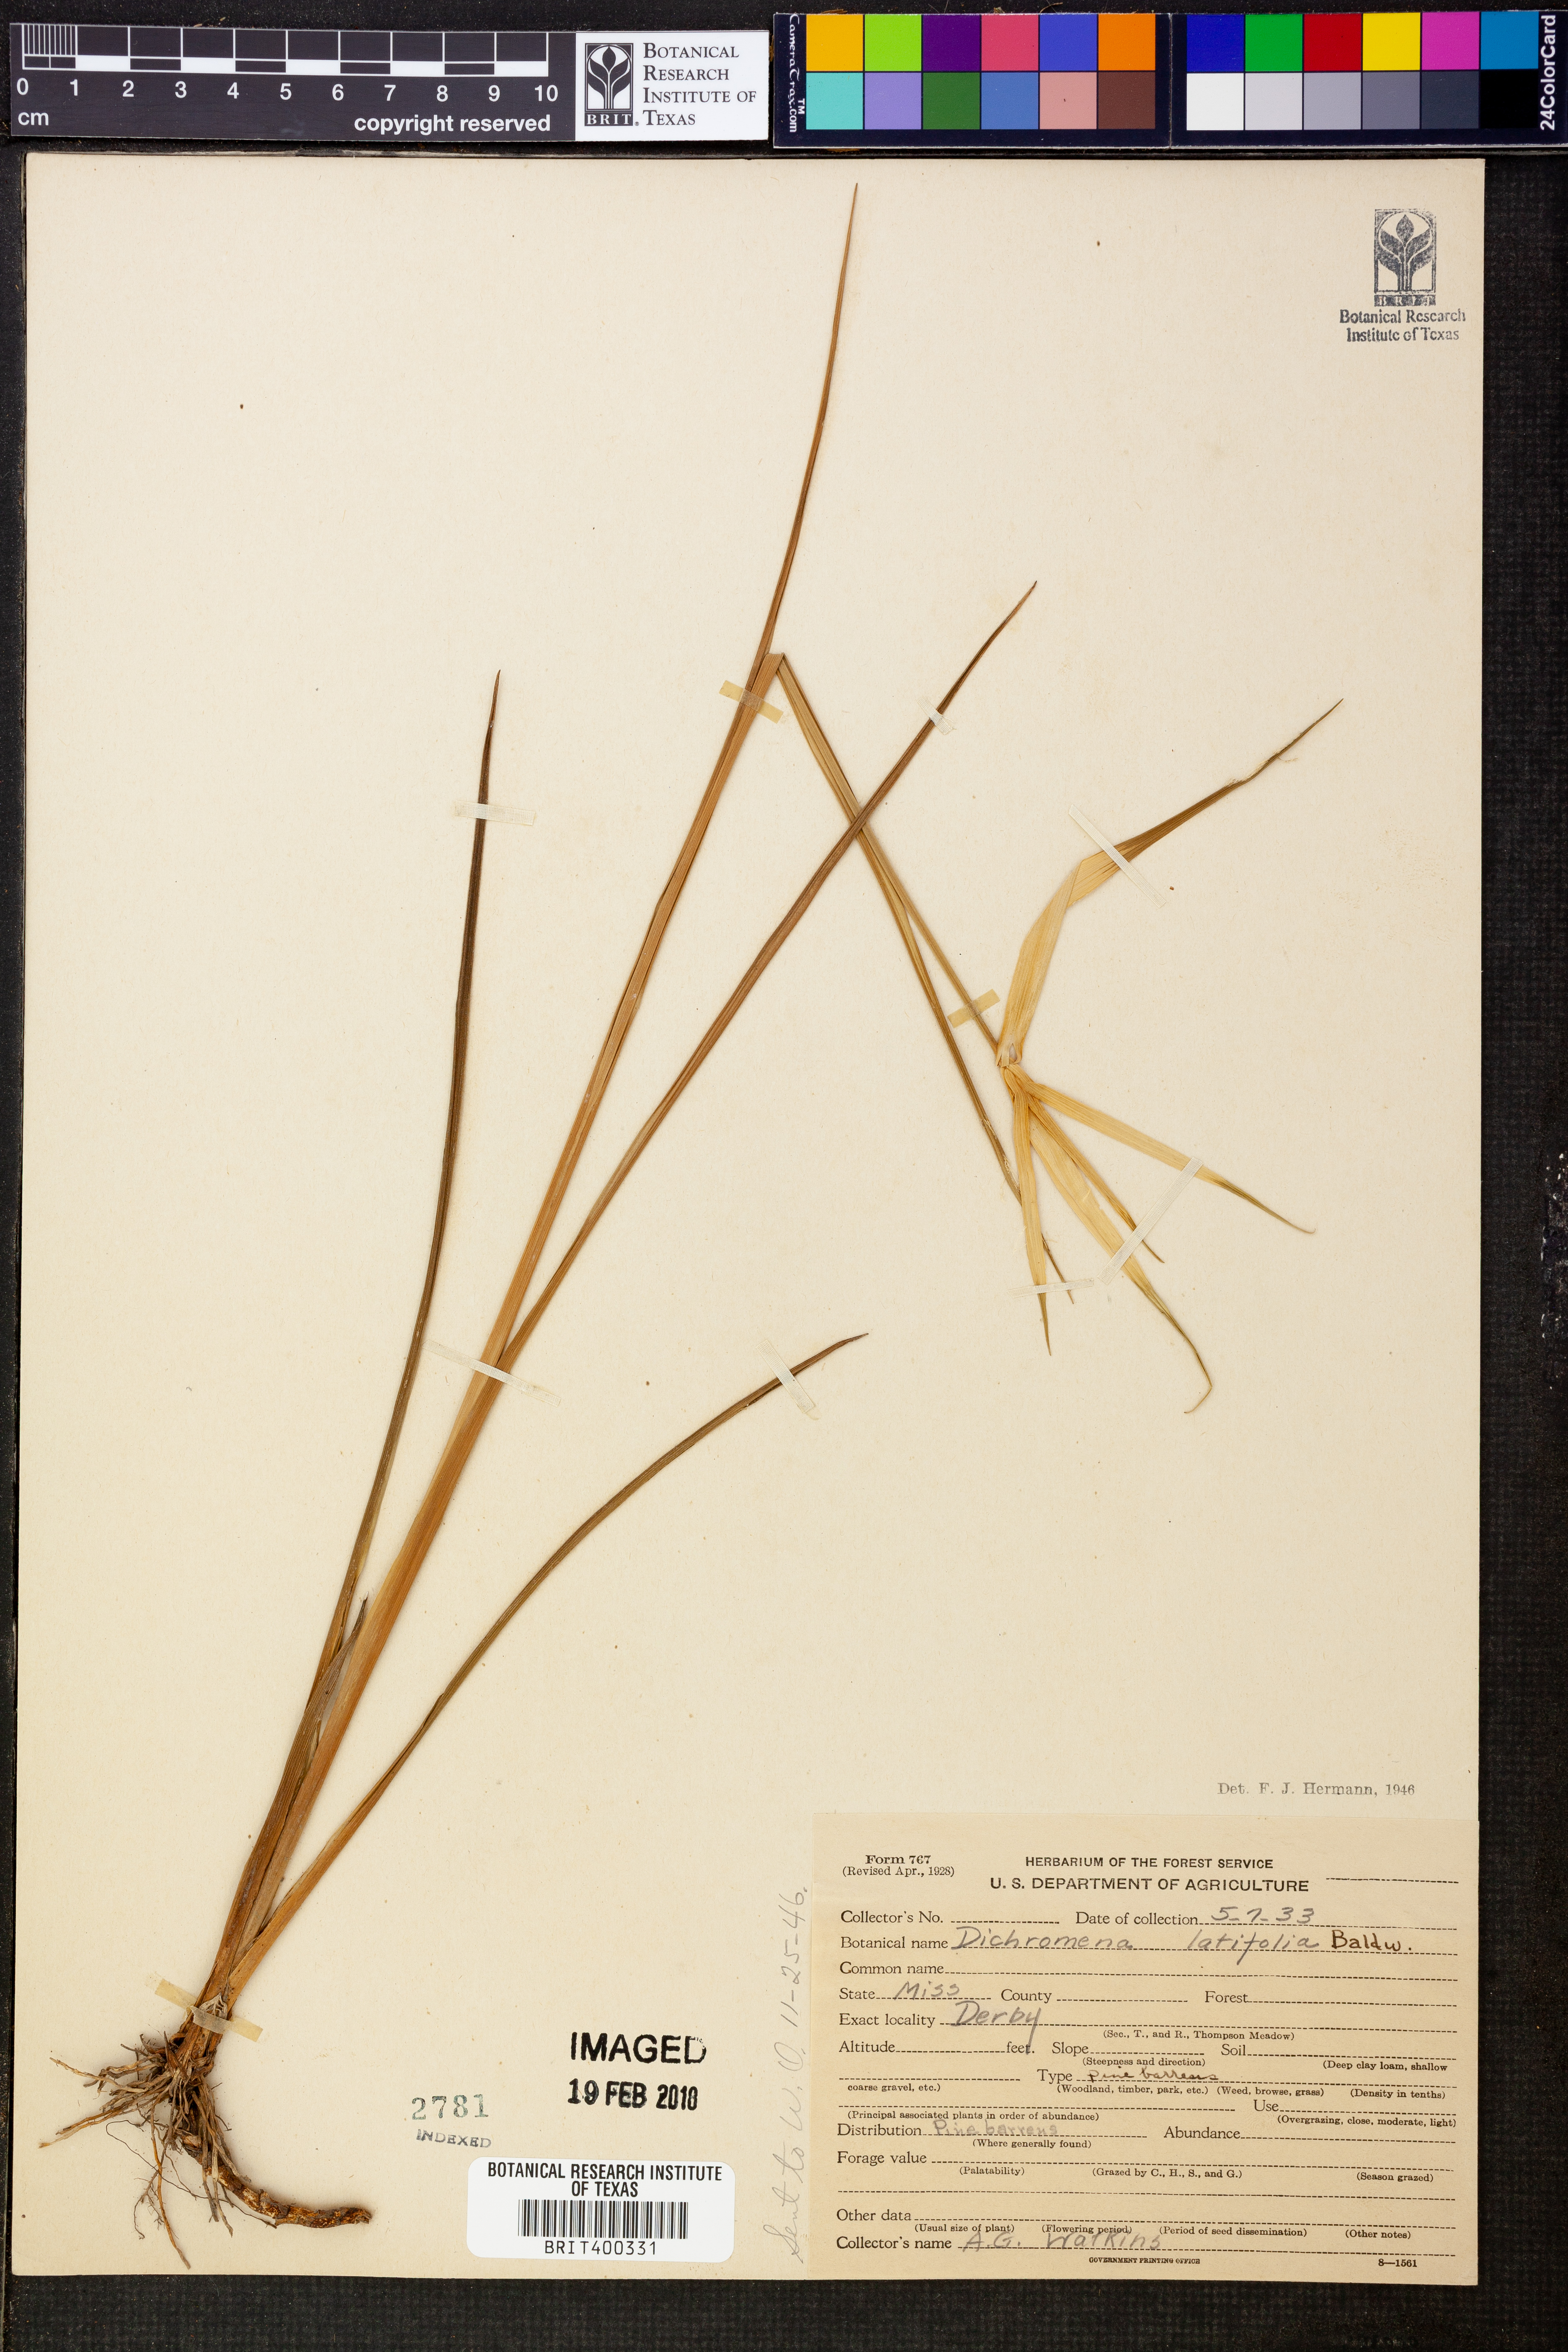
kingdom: Plantae
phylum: Tracheophyta
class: Liliopsida
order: Poales
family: Cyperaceae
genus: Rhynchospora
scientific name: Rhynchospora latifolia
